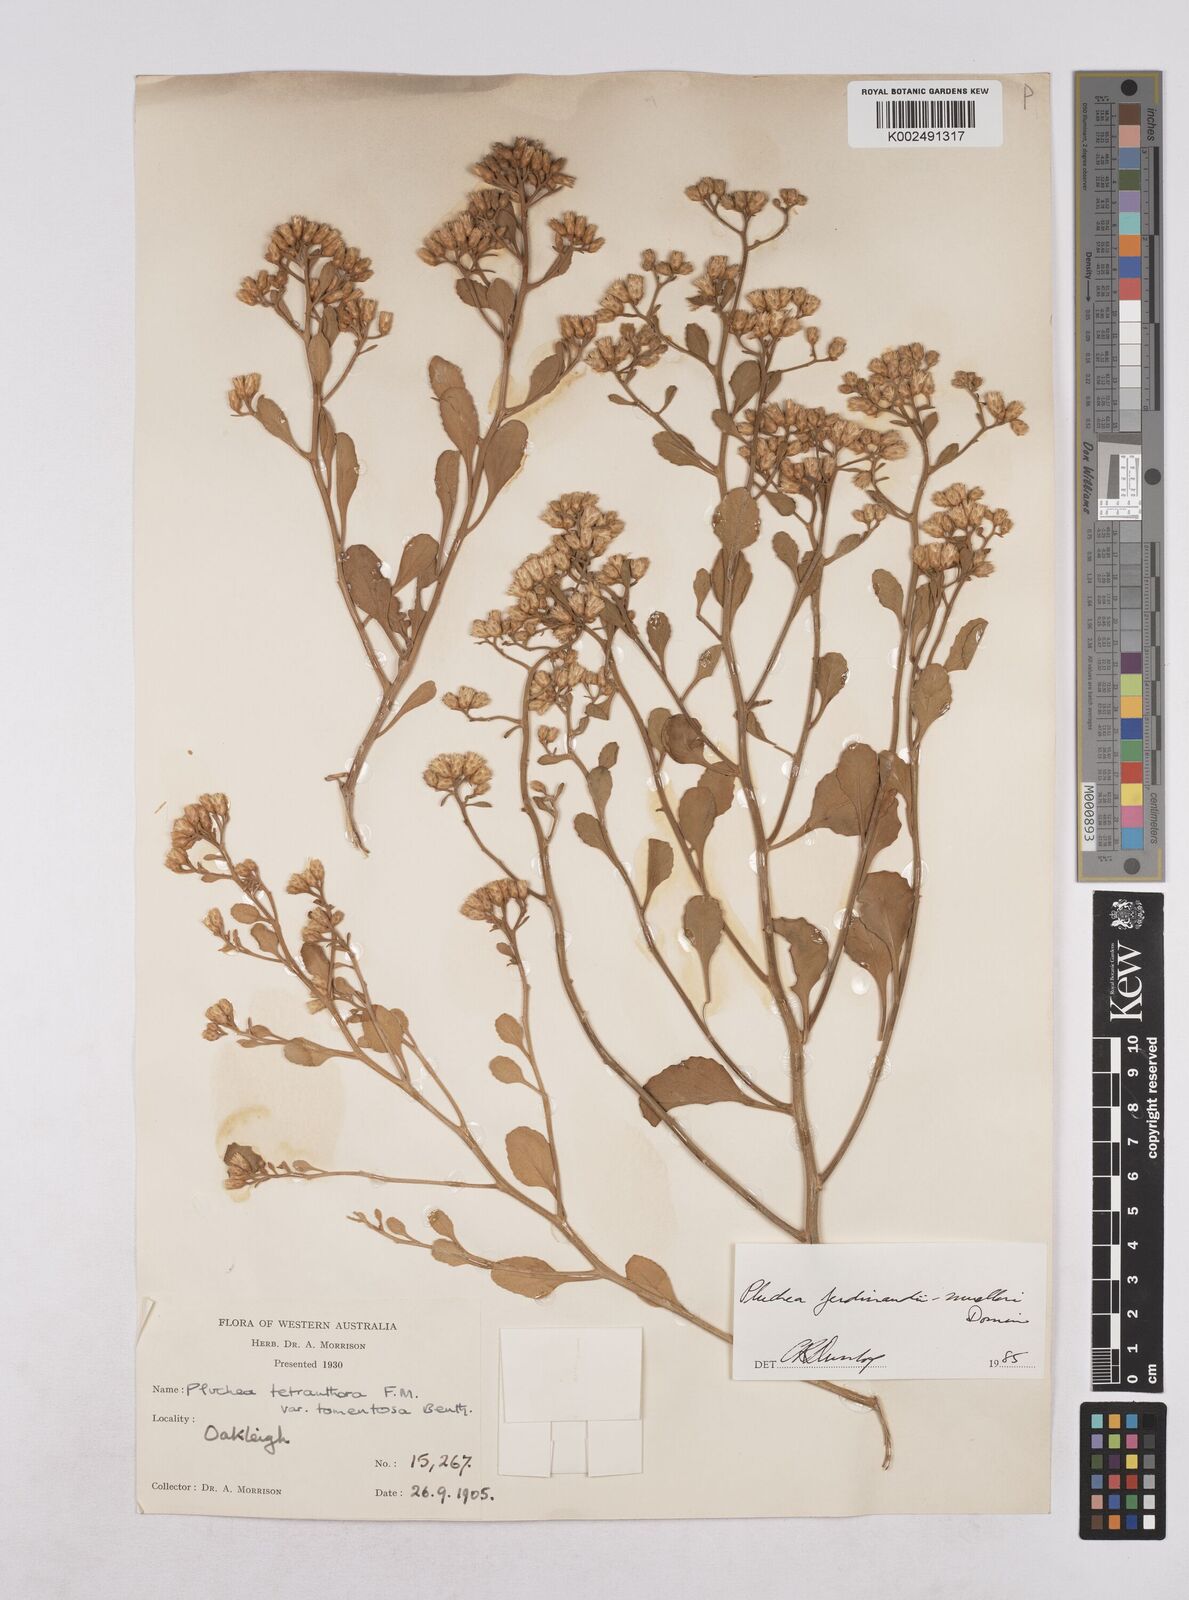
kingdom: Plantae
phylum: Tracheophyta
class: Magnoliopsida
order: Asterales
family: Asteraceae
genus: Pluchea
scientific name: Pluchea ferdinandi-muelleri
